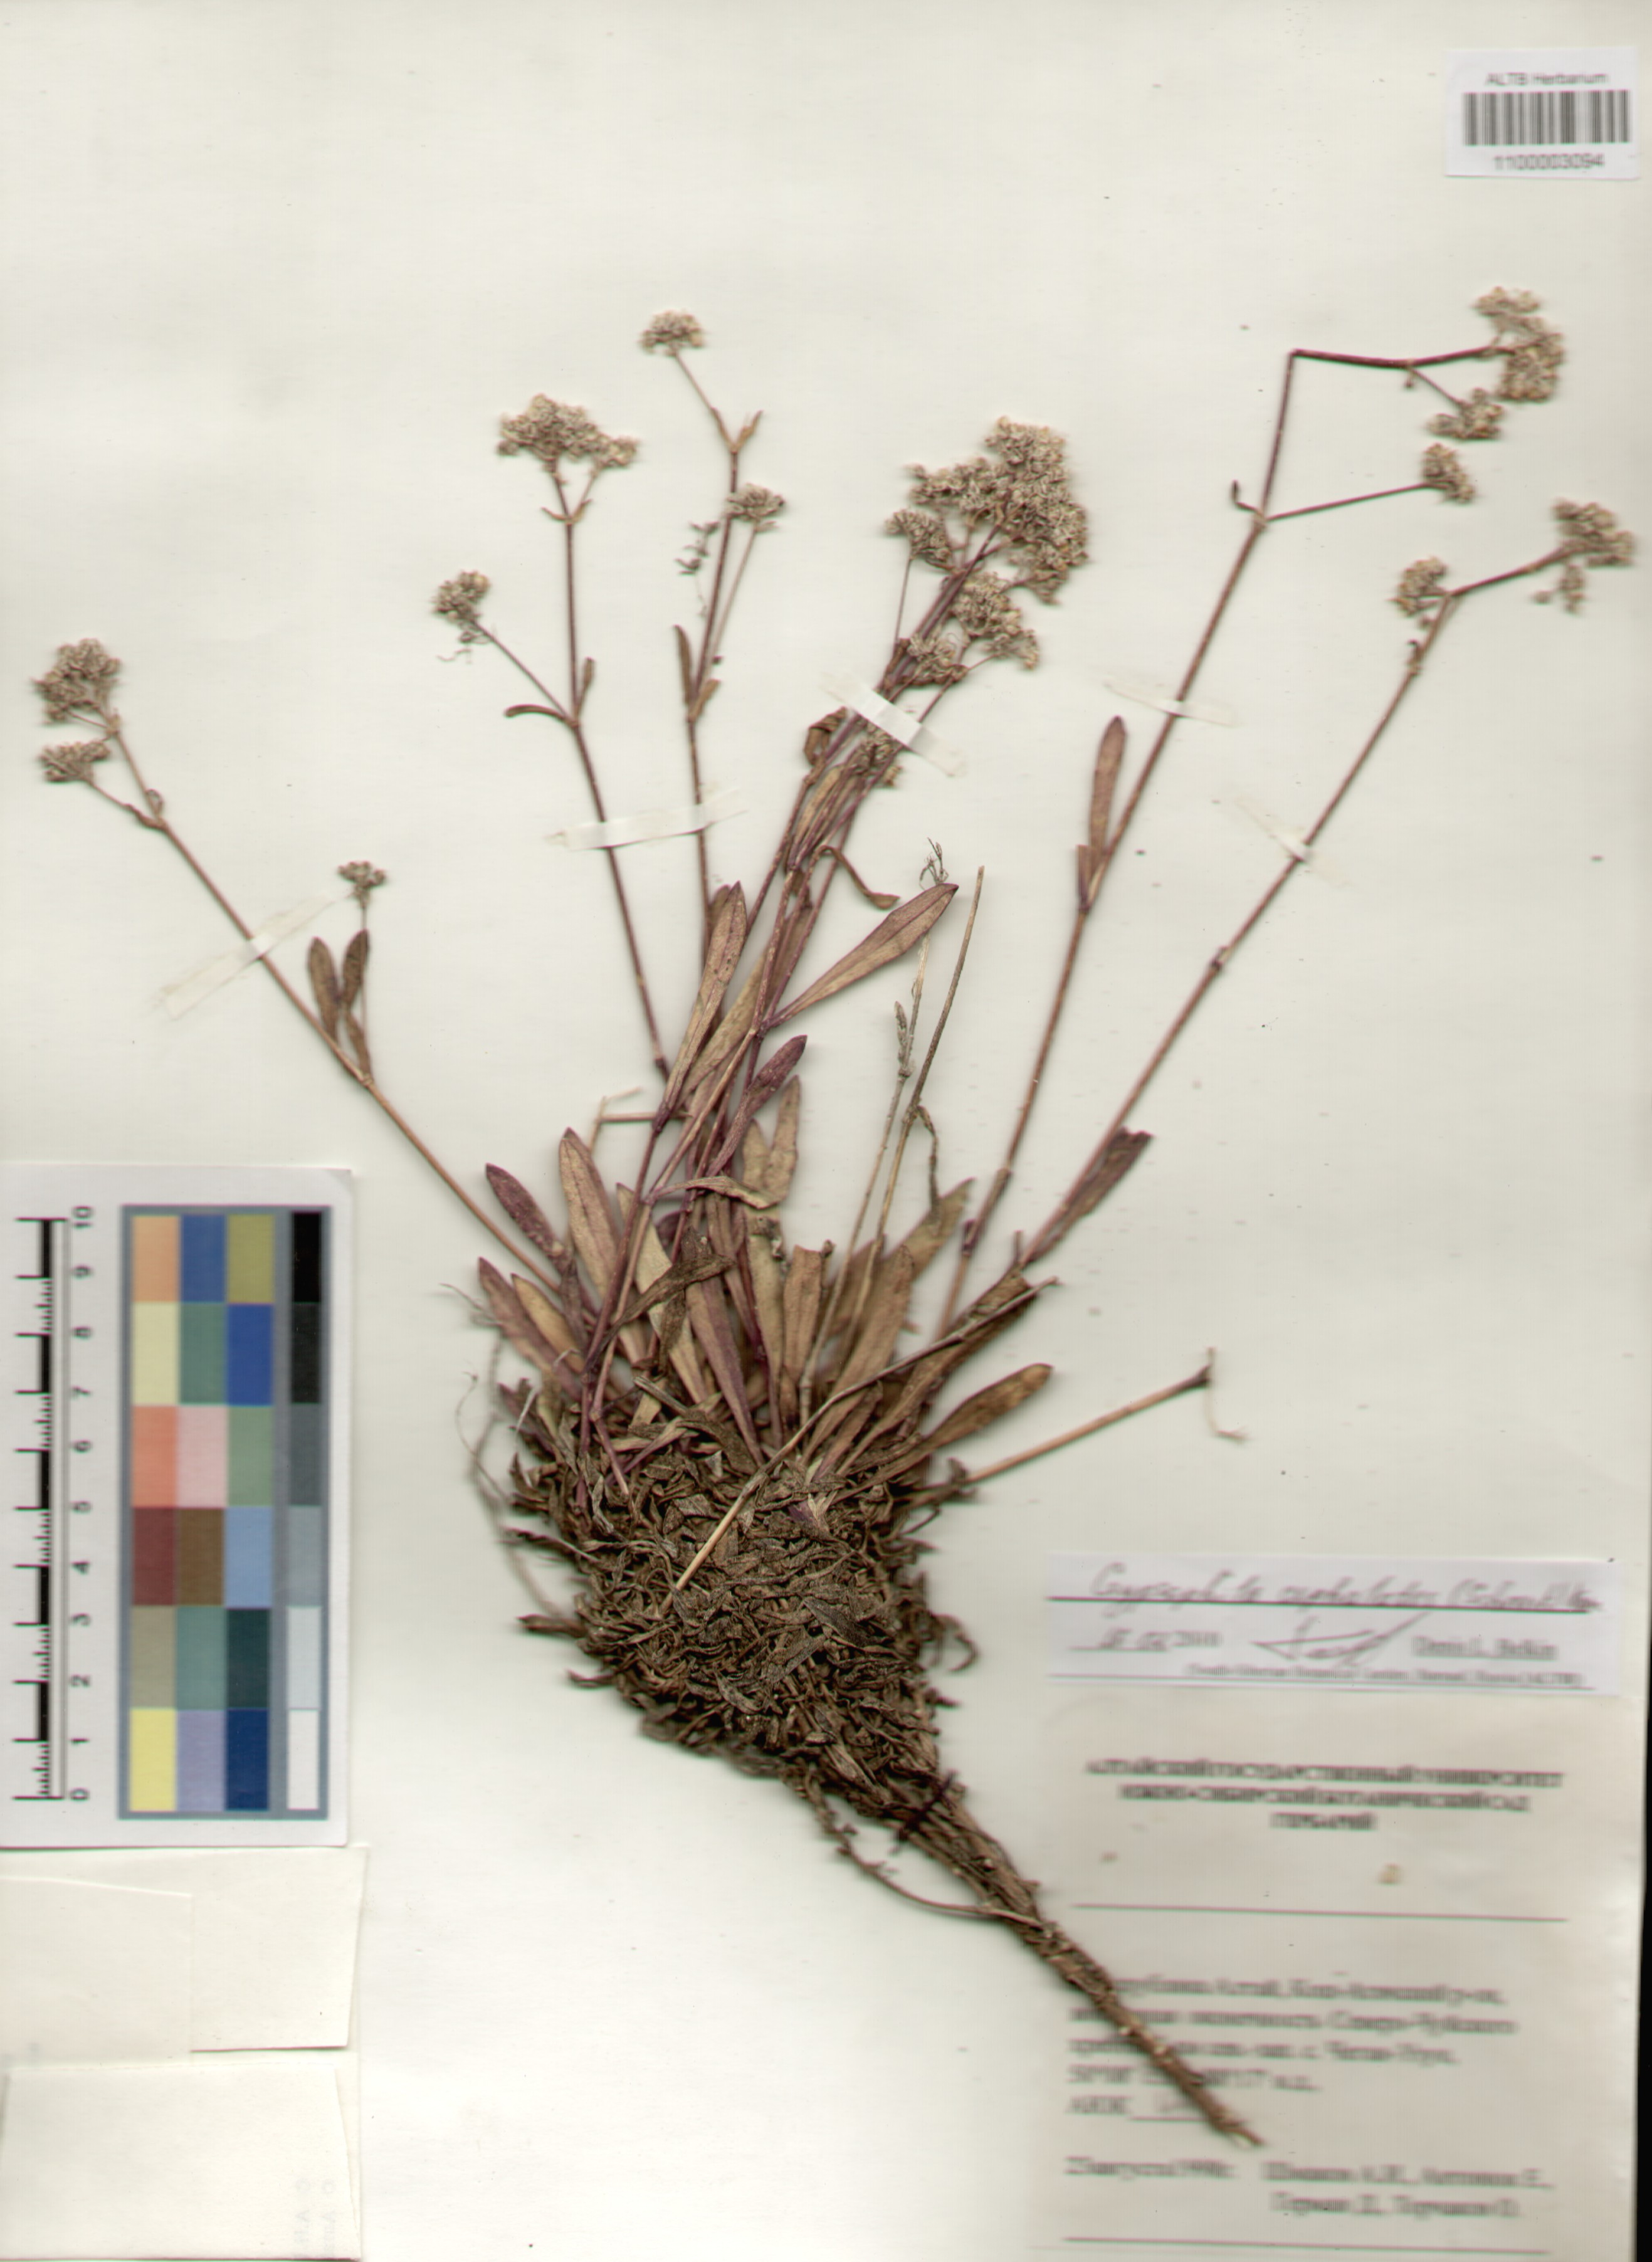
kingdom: Plantae
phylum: Tracheophyta
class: Magnoliopsida
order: Caryophyllales
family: Caryophyllaceae
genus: Gypsophila
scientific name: Gypsophila cephalotes
